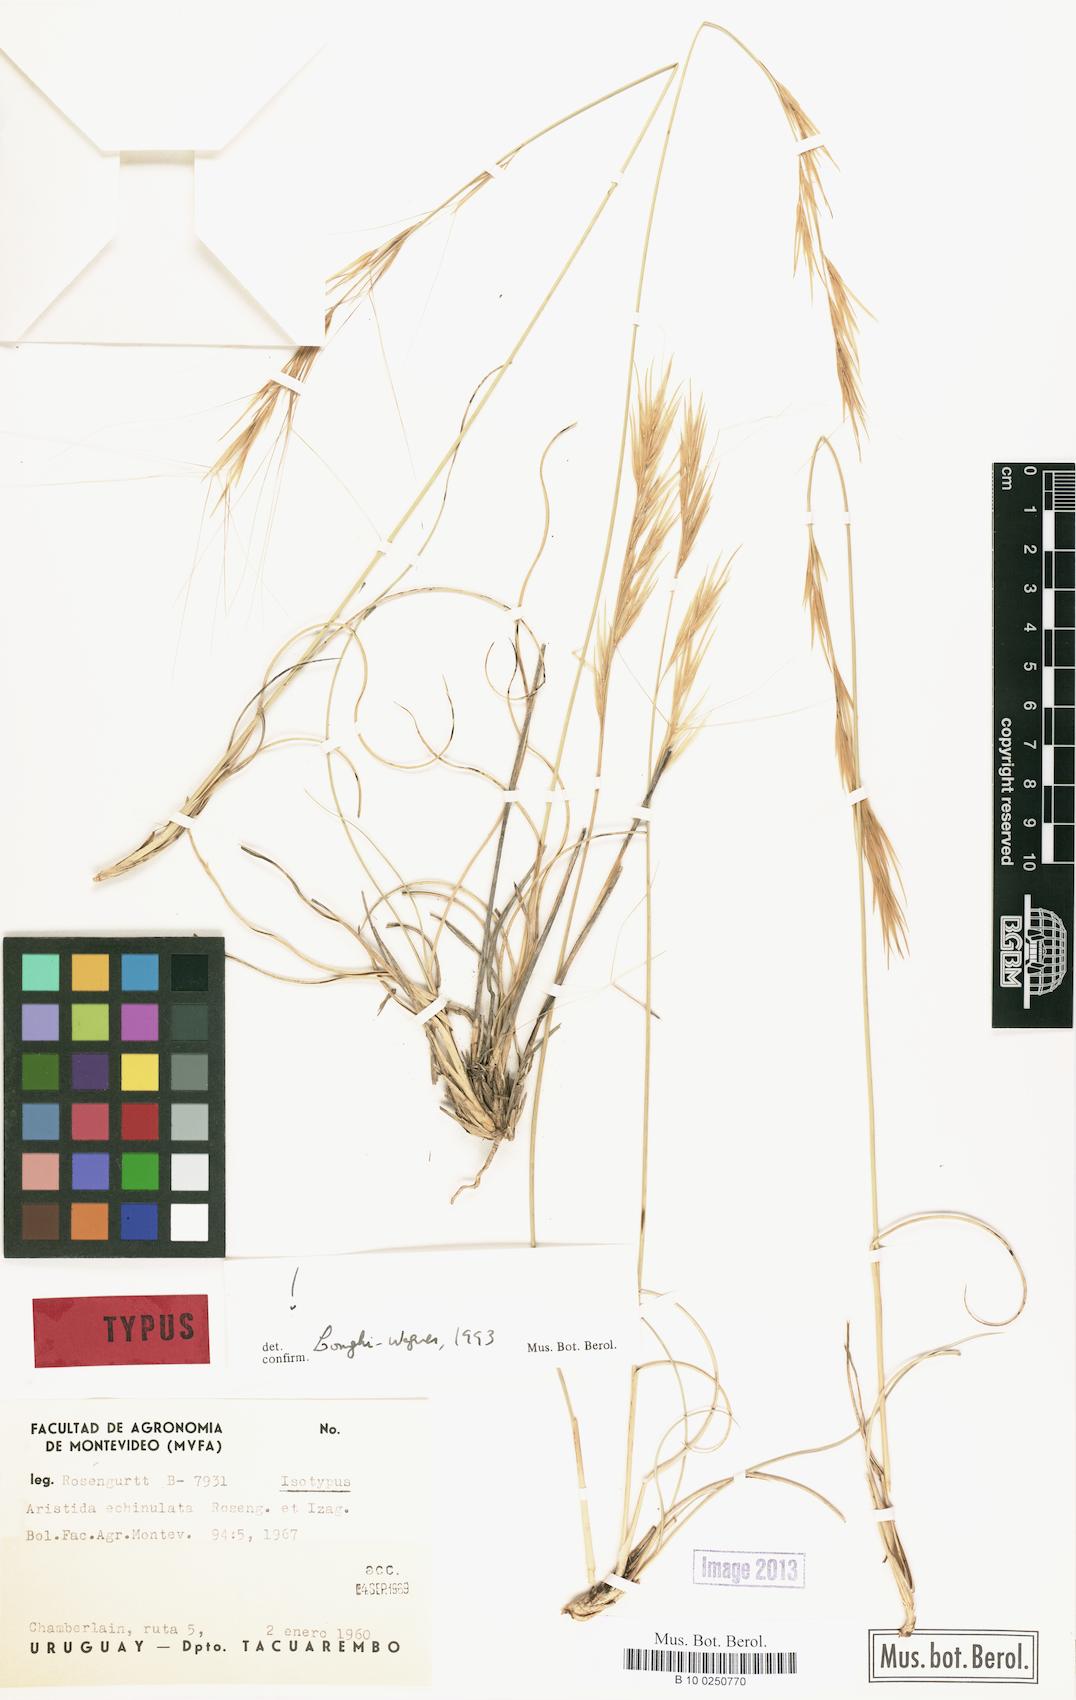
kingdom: Plantae
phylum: Tracheophyta
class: Liliopsida
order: Poales
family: Poaceae
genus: Aristida
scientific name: Aristida echinulata
